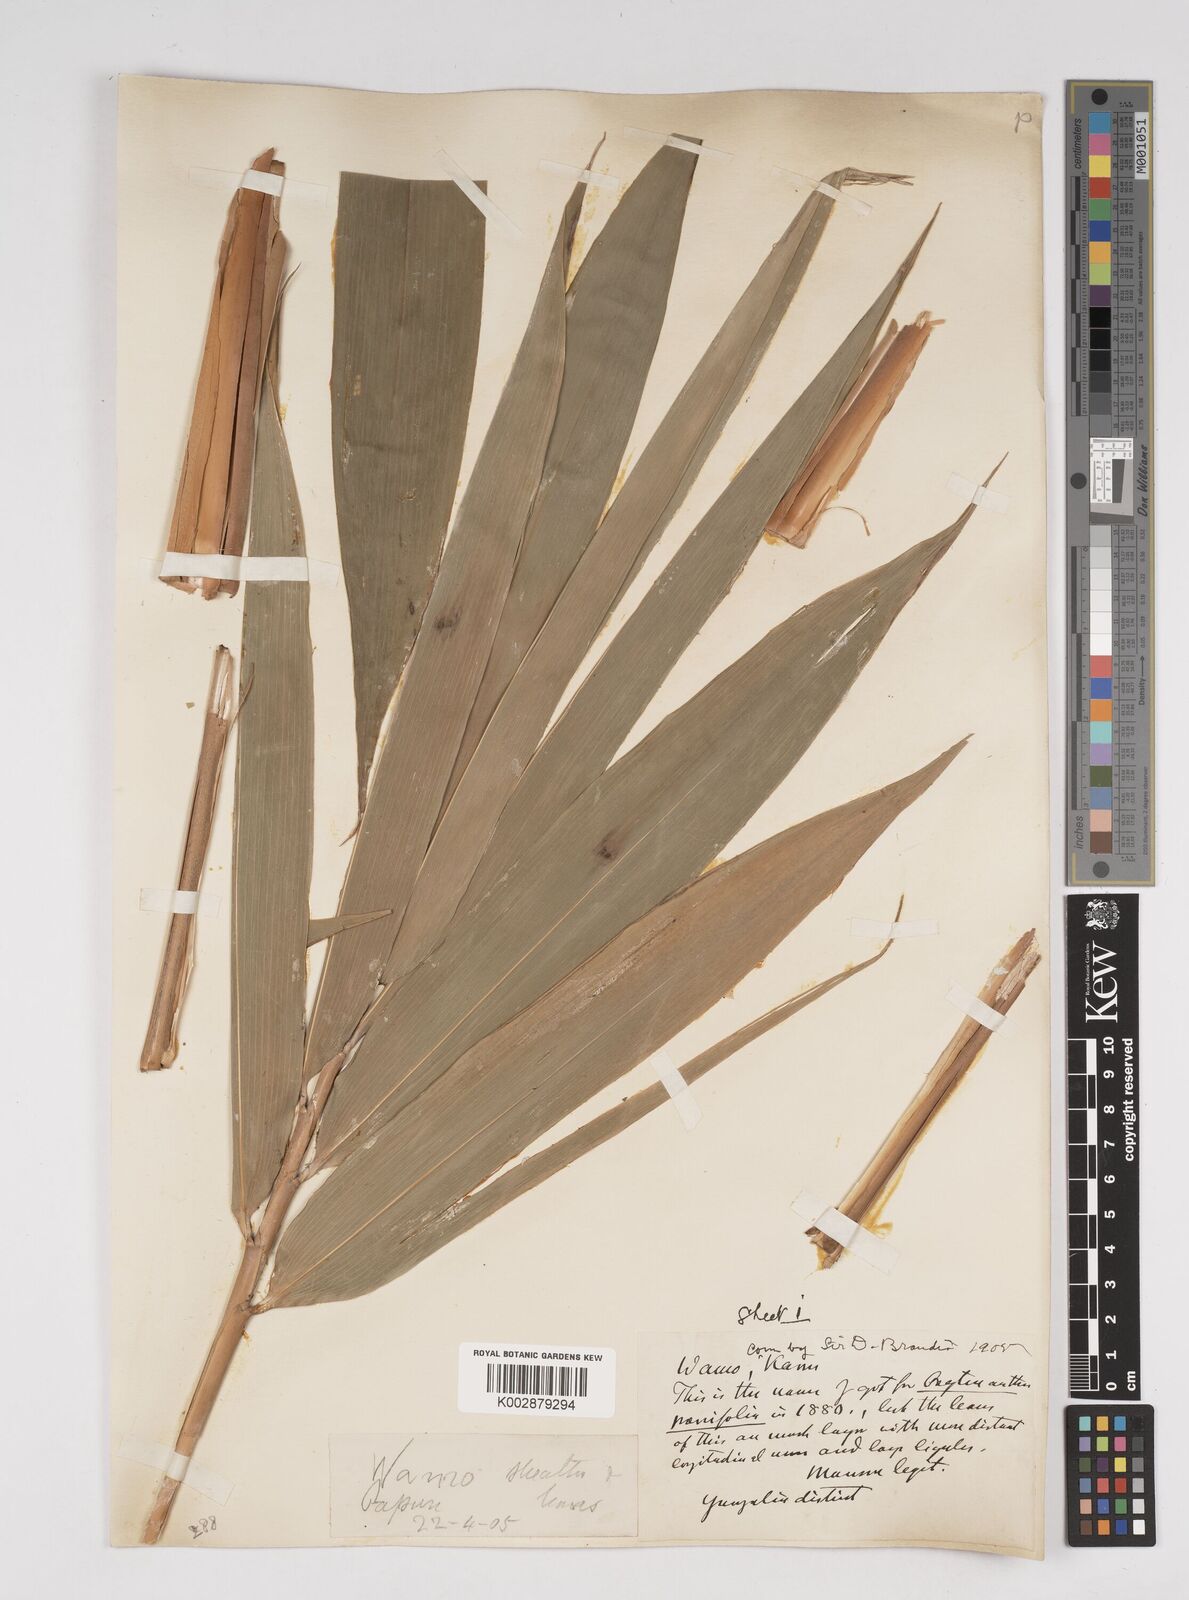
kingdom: Plantae
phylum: Tracheophyta
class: Liliopsida
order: Poales
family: Poaceae
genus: Dendrocalamus
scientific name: Dendrocalamus
